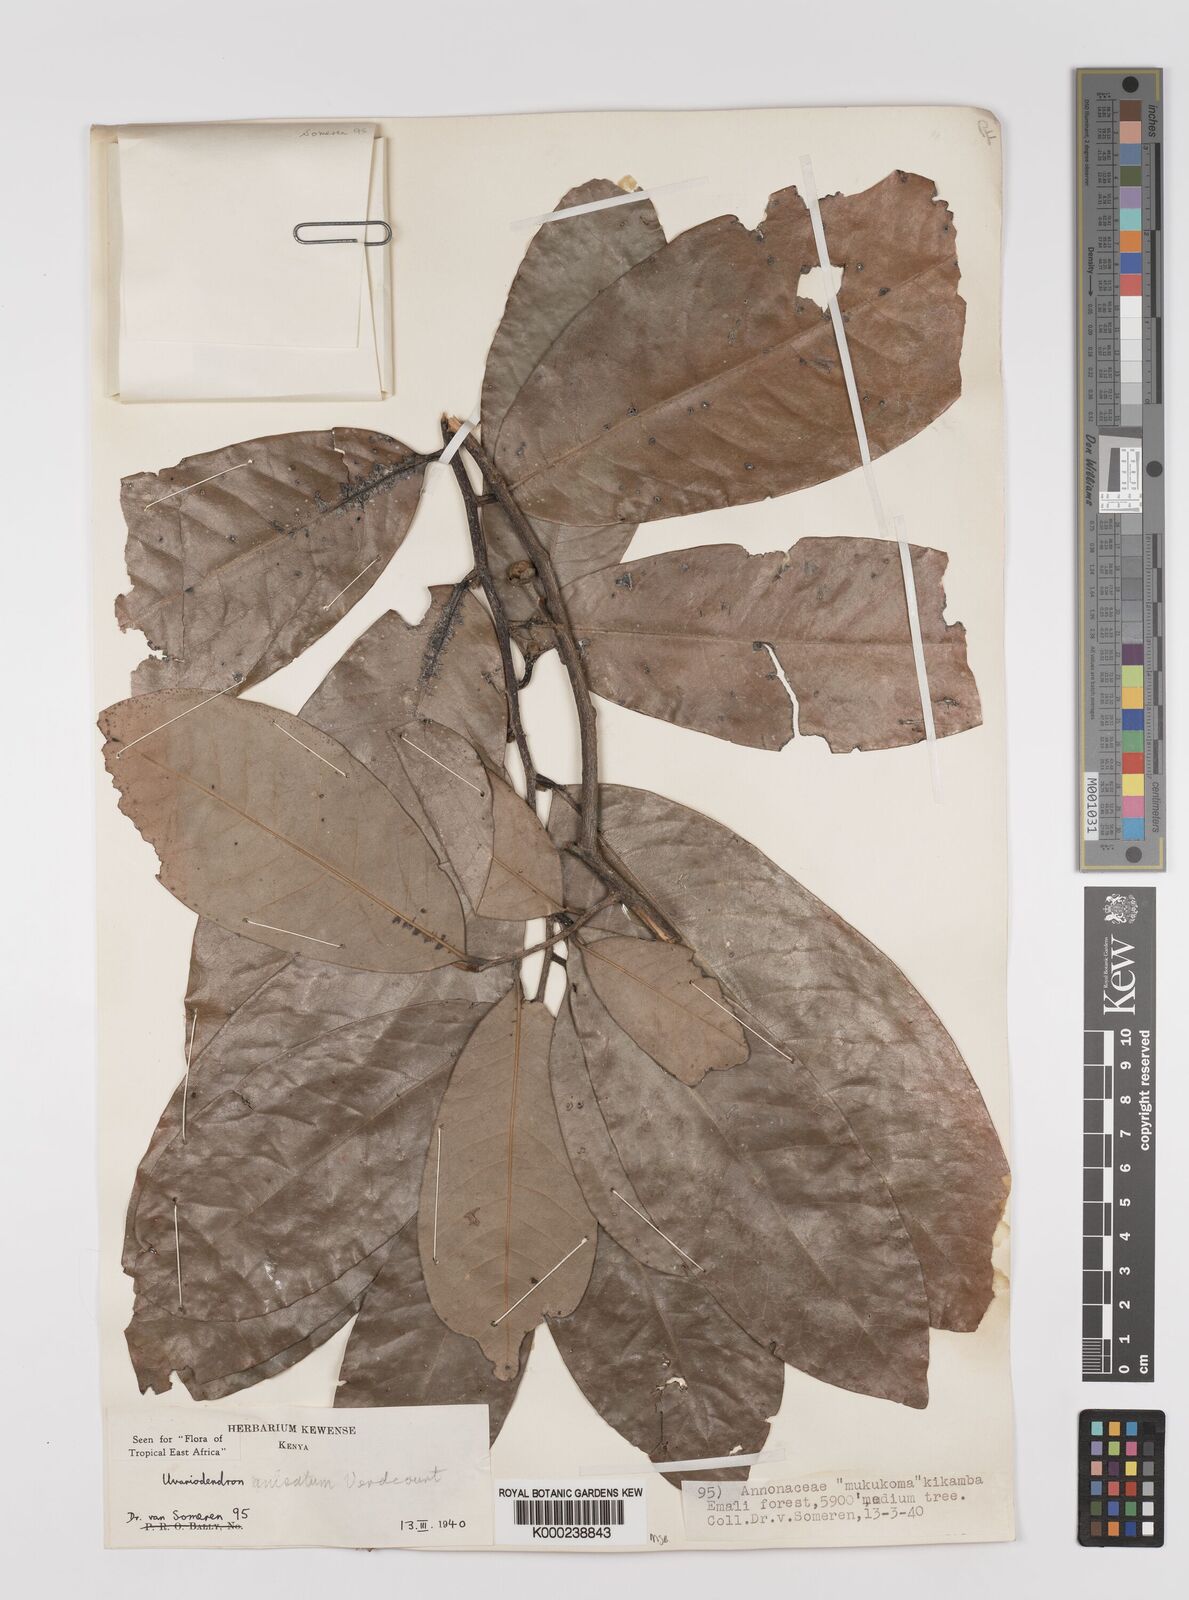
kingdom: Plantae
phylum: Tracheophyta
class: Magnoliopsida
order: Magnoliales
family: Annonaceae
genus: Uvariodendron
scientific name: Uvariodendron anisatum
